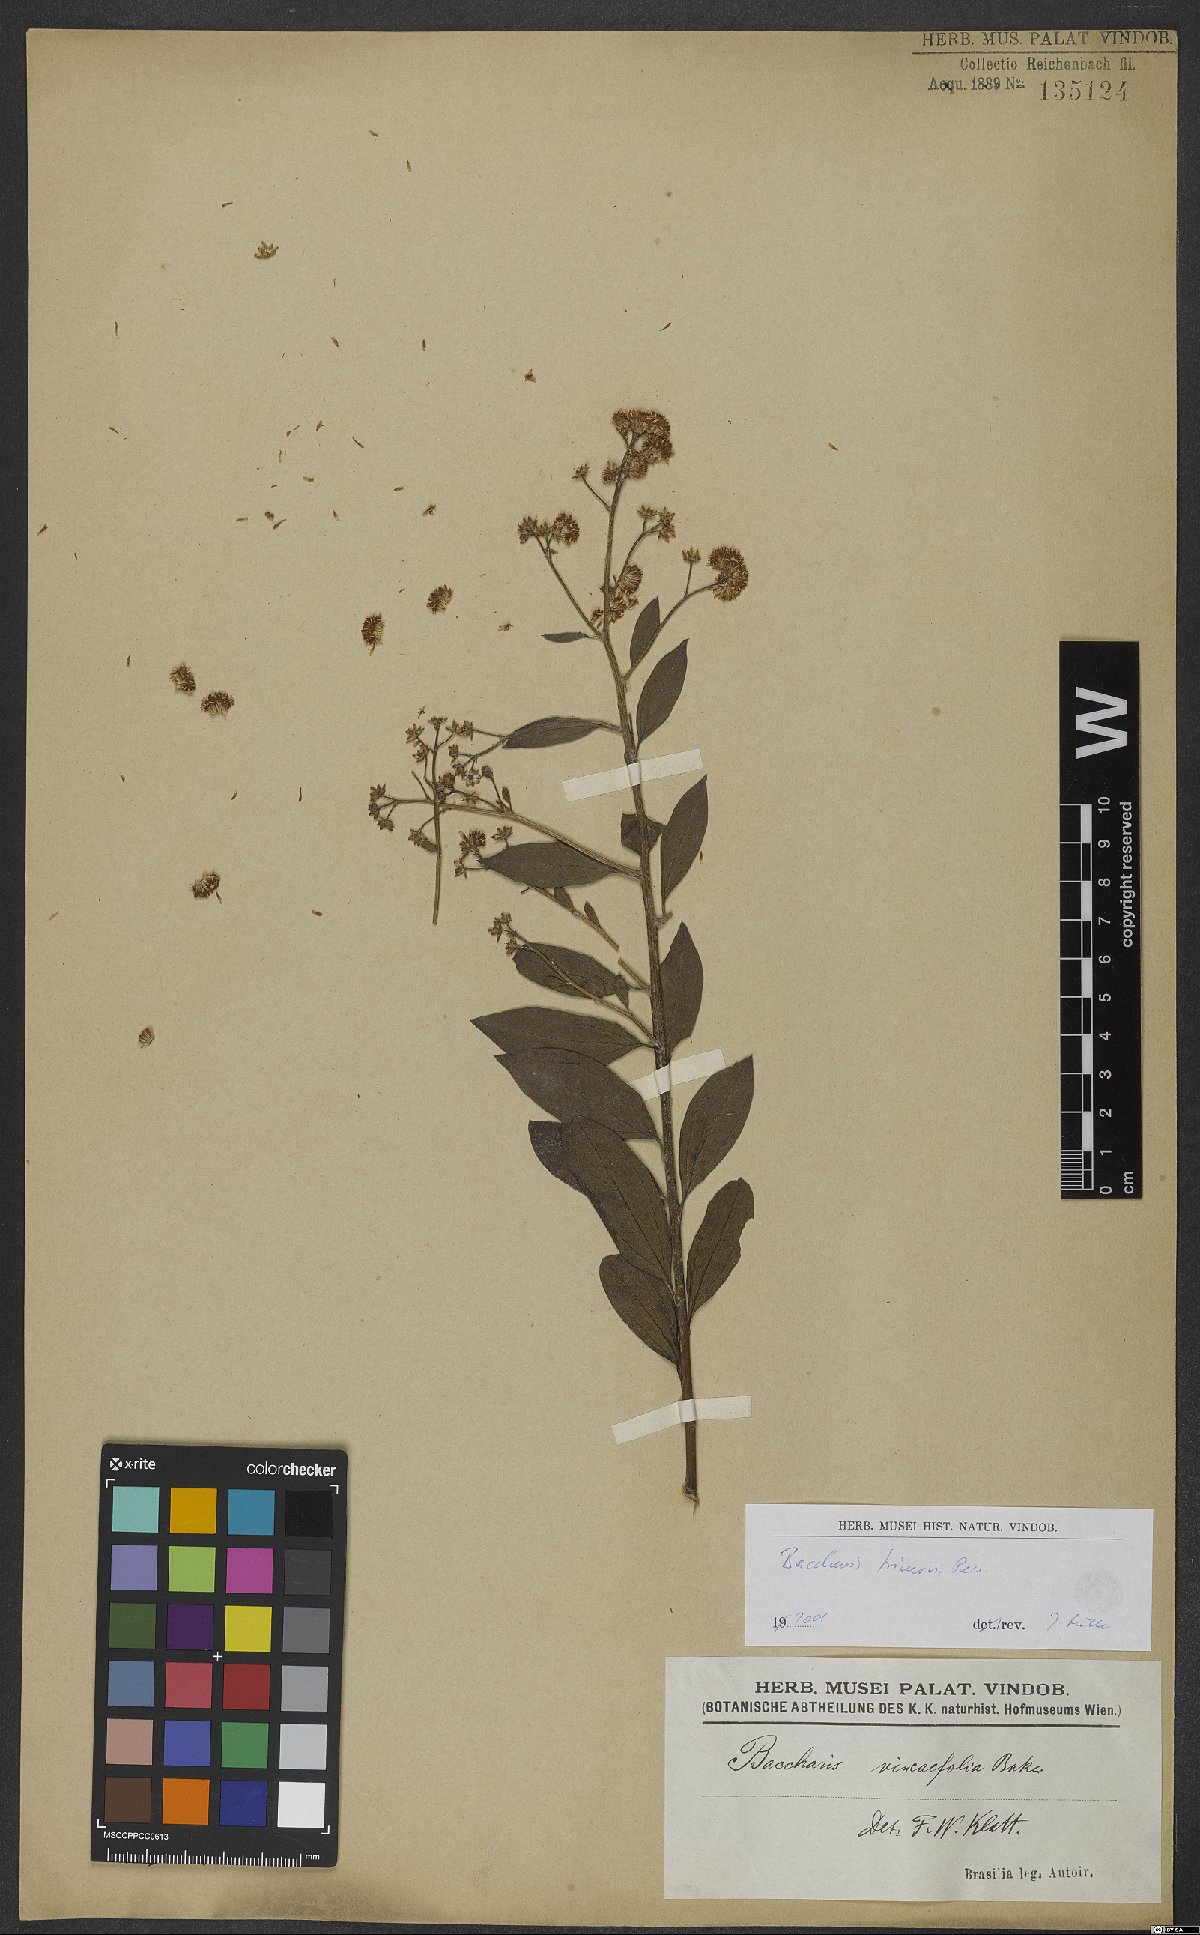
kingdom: Plantae
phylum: Tracheophyta
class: Magnoliopsida
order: Asterales
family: Asteraceae
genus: Baccharis
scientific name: Baccharis trinervis
